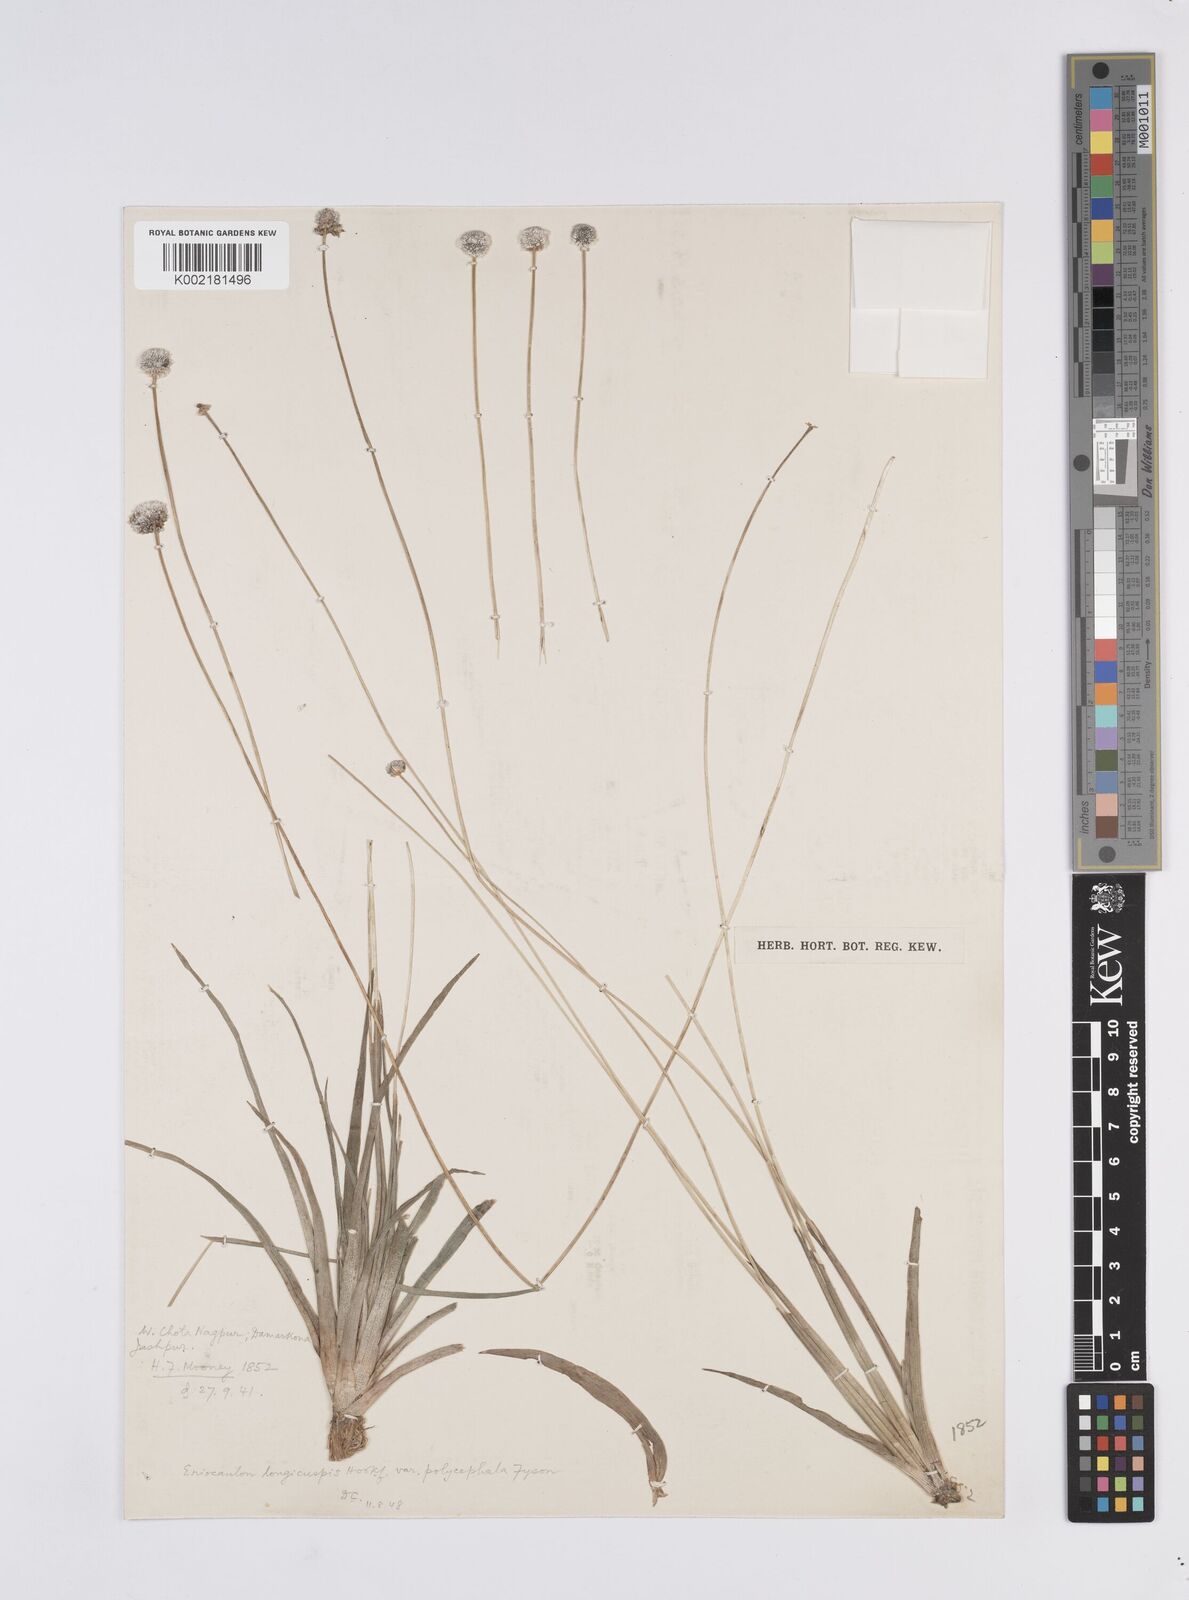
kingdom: Plantae
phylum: Tracheophyta
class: Liliopsida
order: Poales
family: Eriocaulaceae
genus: Eriocaulon
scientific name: Eriocaulon longicuspe
